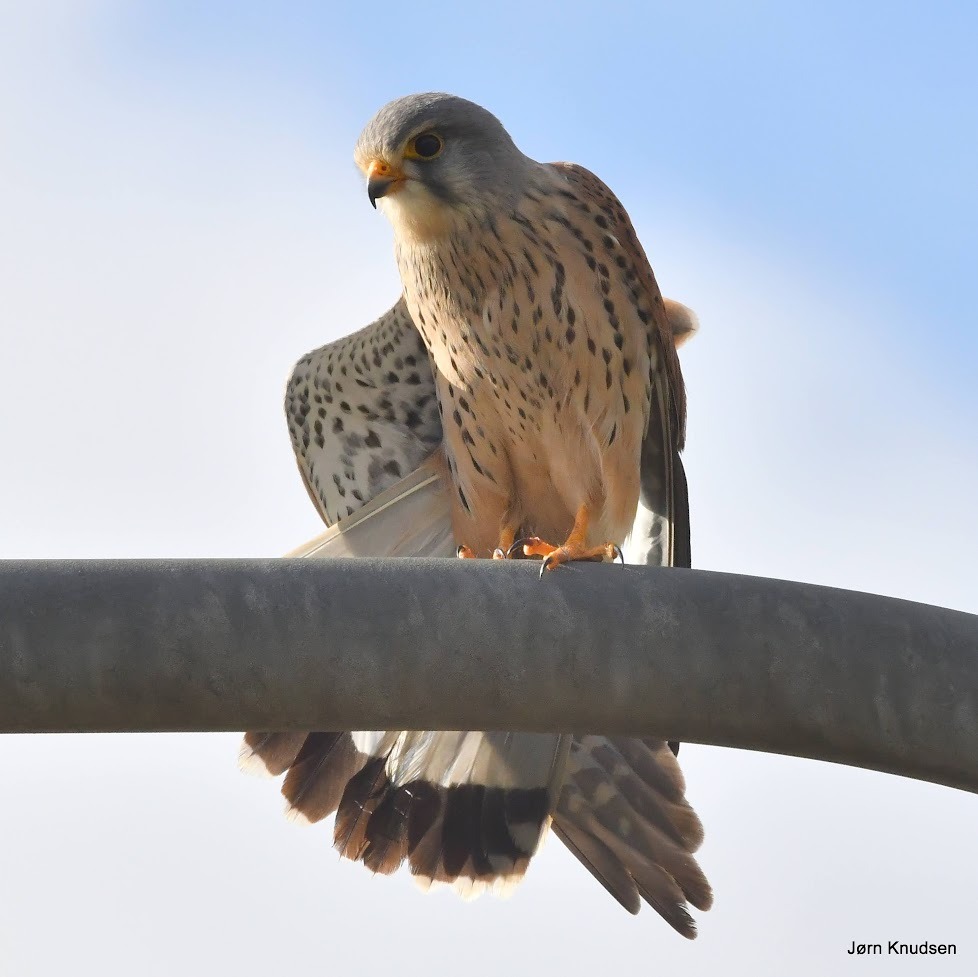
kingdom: Animalia
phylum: Chordata
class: Aves
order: Falconiformes
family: Falconidae
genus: Falco
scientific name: Falco tinnunculus
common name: Tårnfalk
